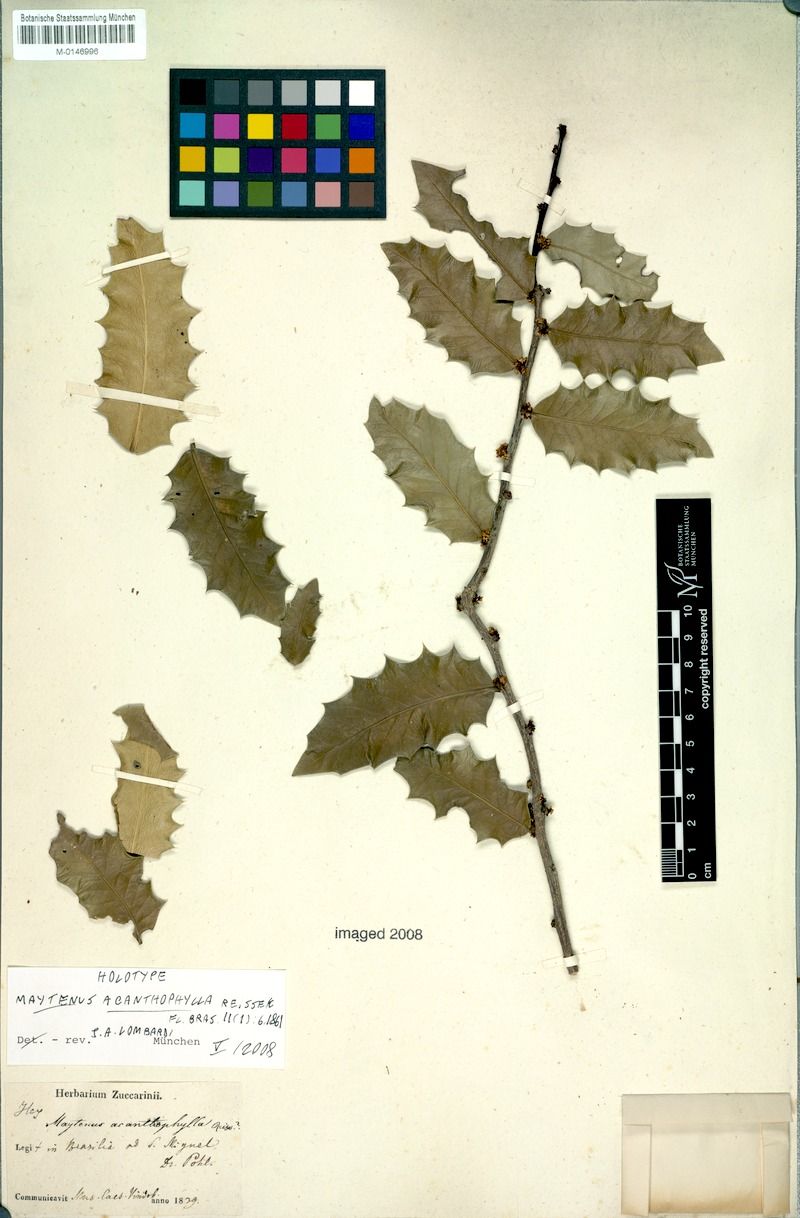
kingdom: Plantae
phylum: Tracheophyta
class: Magnoliopsida
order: Celastrales
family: Celastraceae
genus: Monteverdia
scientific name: Monteverdia acanthophylla
